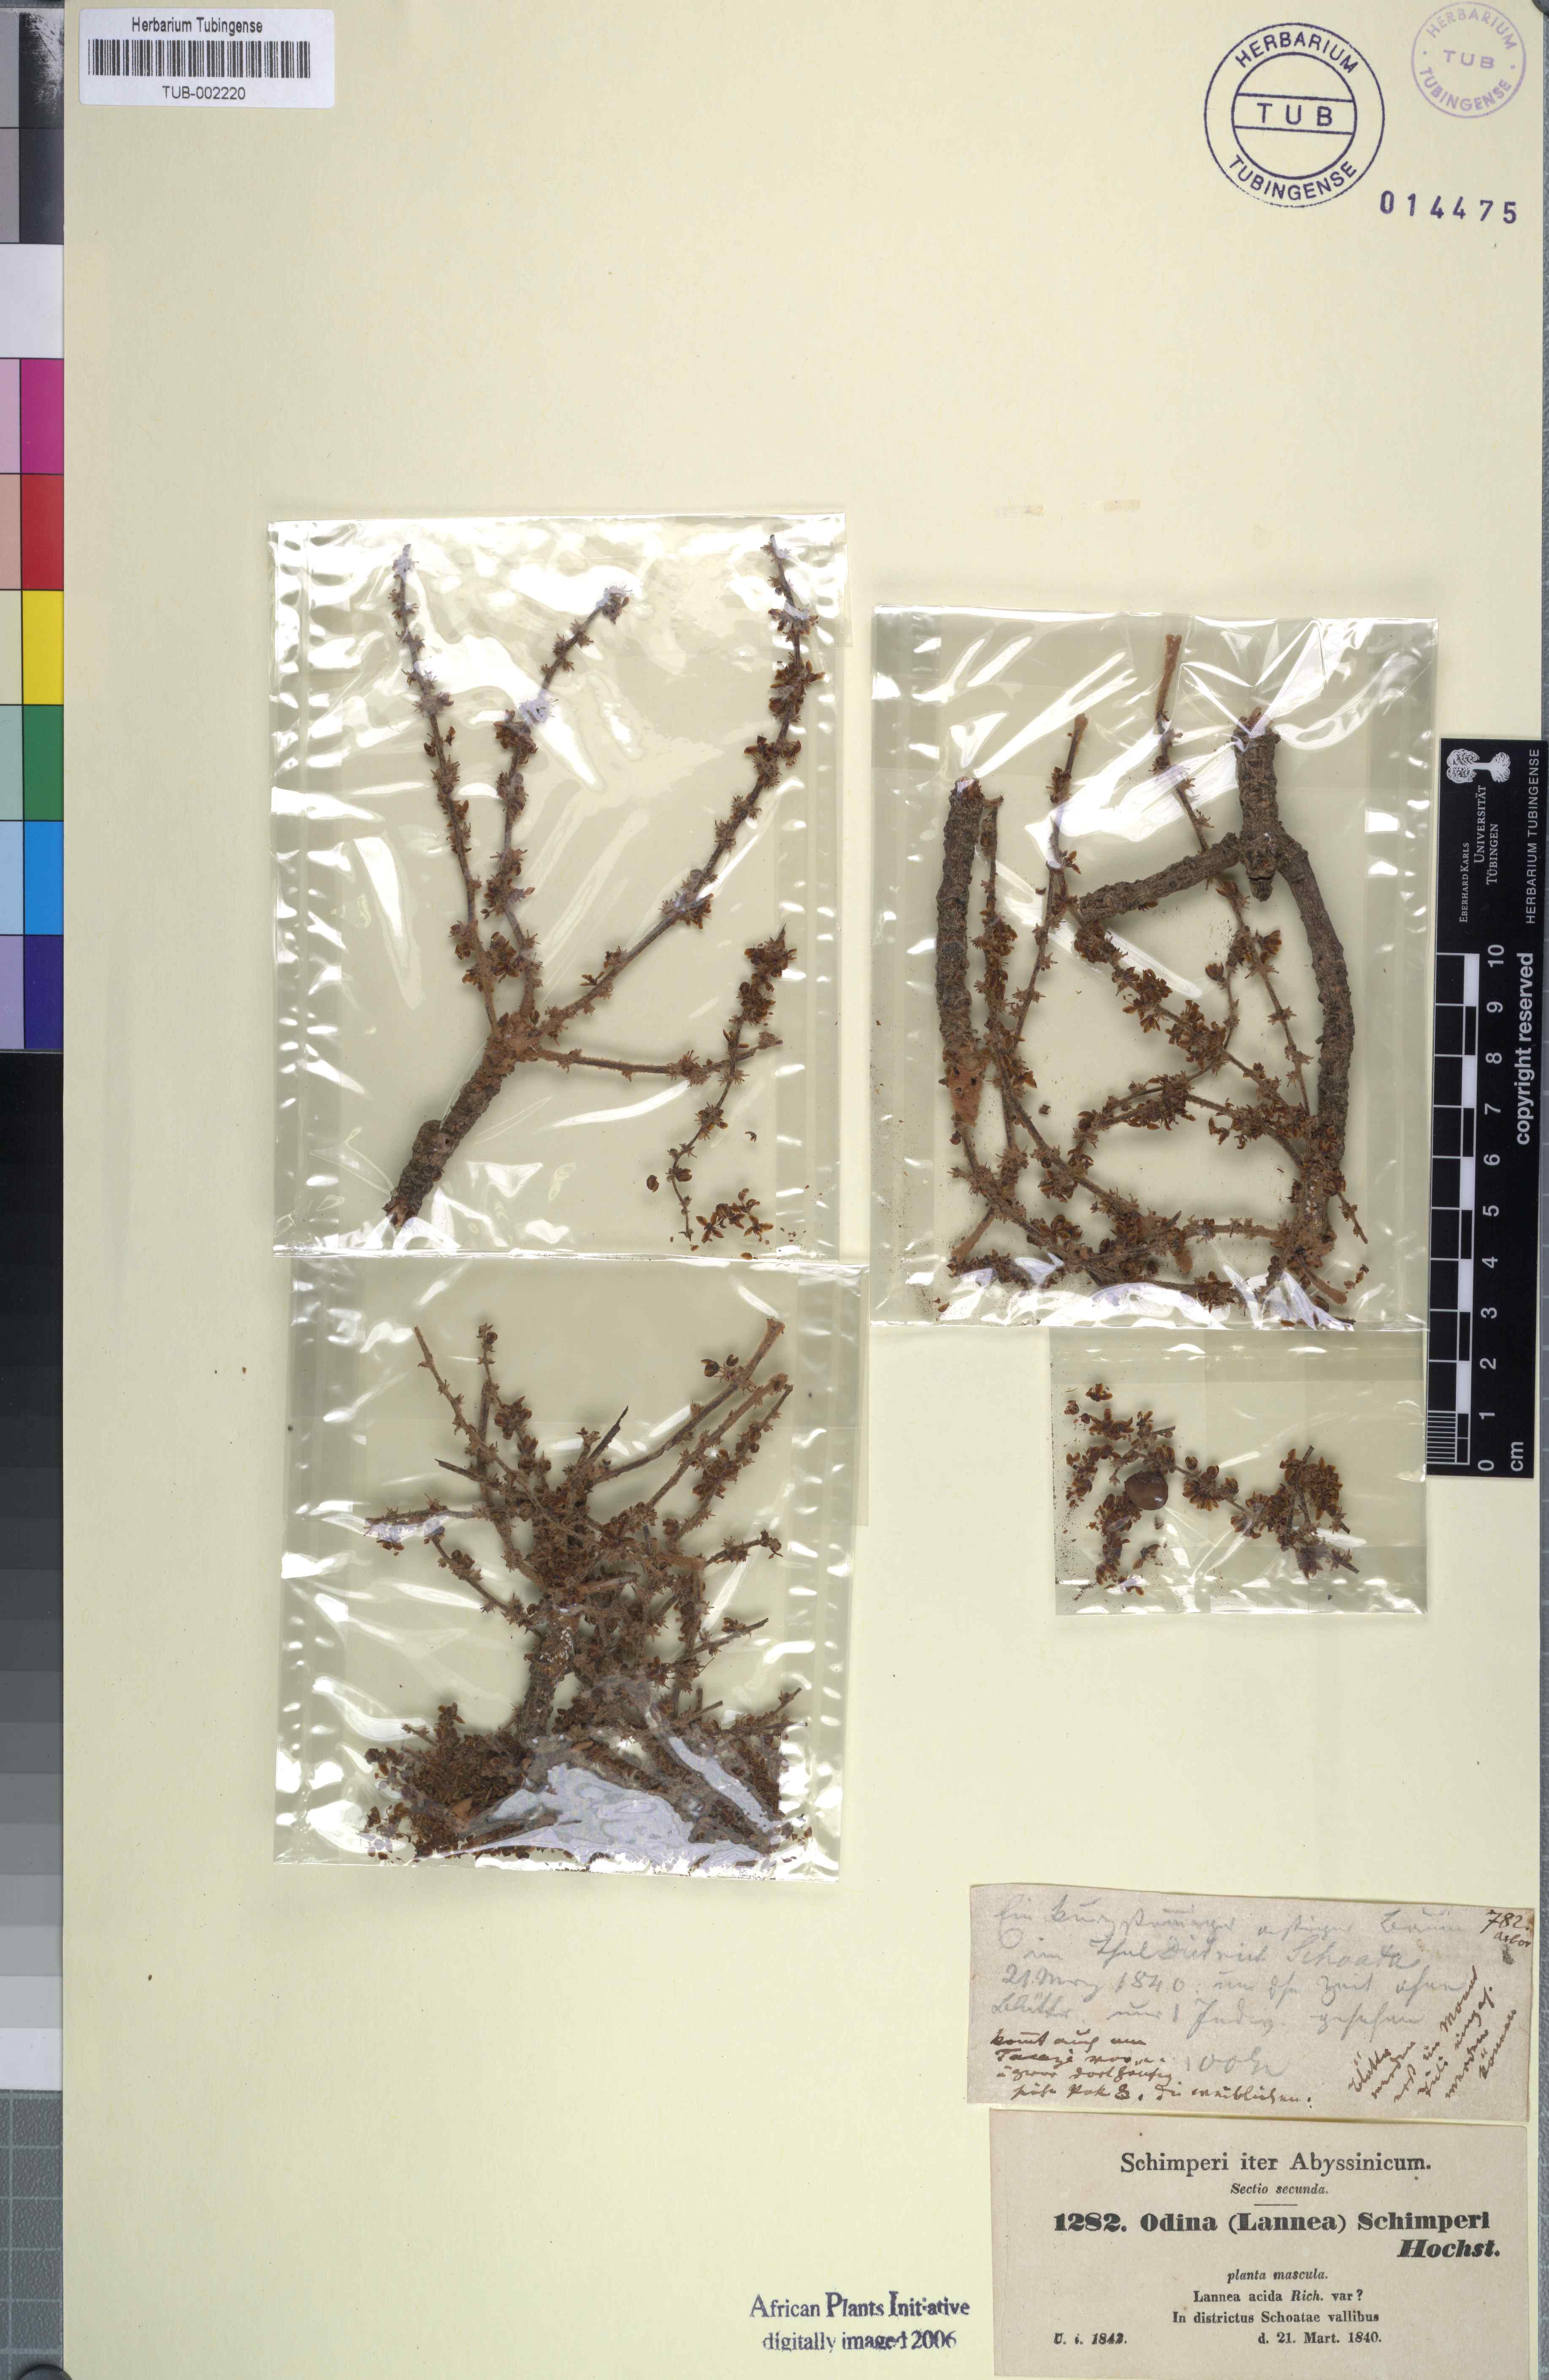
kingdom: Plantae
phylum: Tracheophyta
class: Magnoliopsida
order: Sapindales
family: Anacardiaceae
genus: Lannea
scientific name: Lannea schimperi
